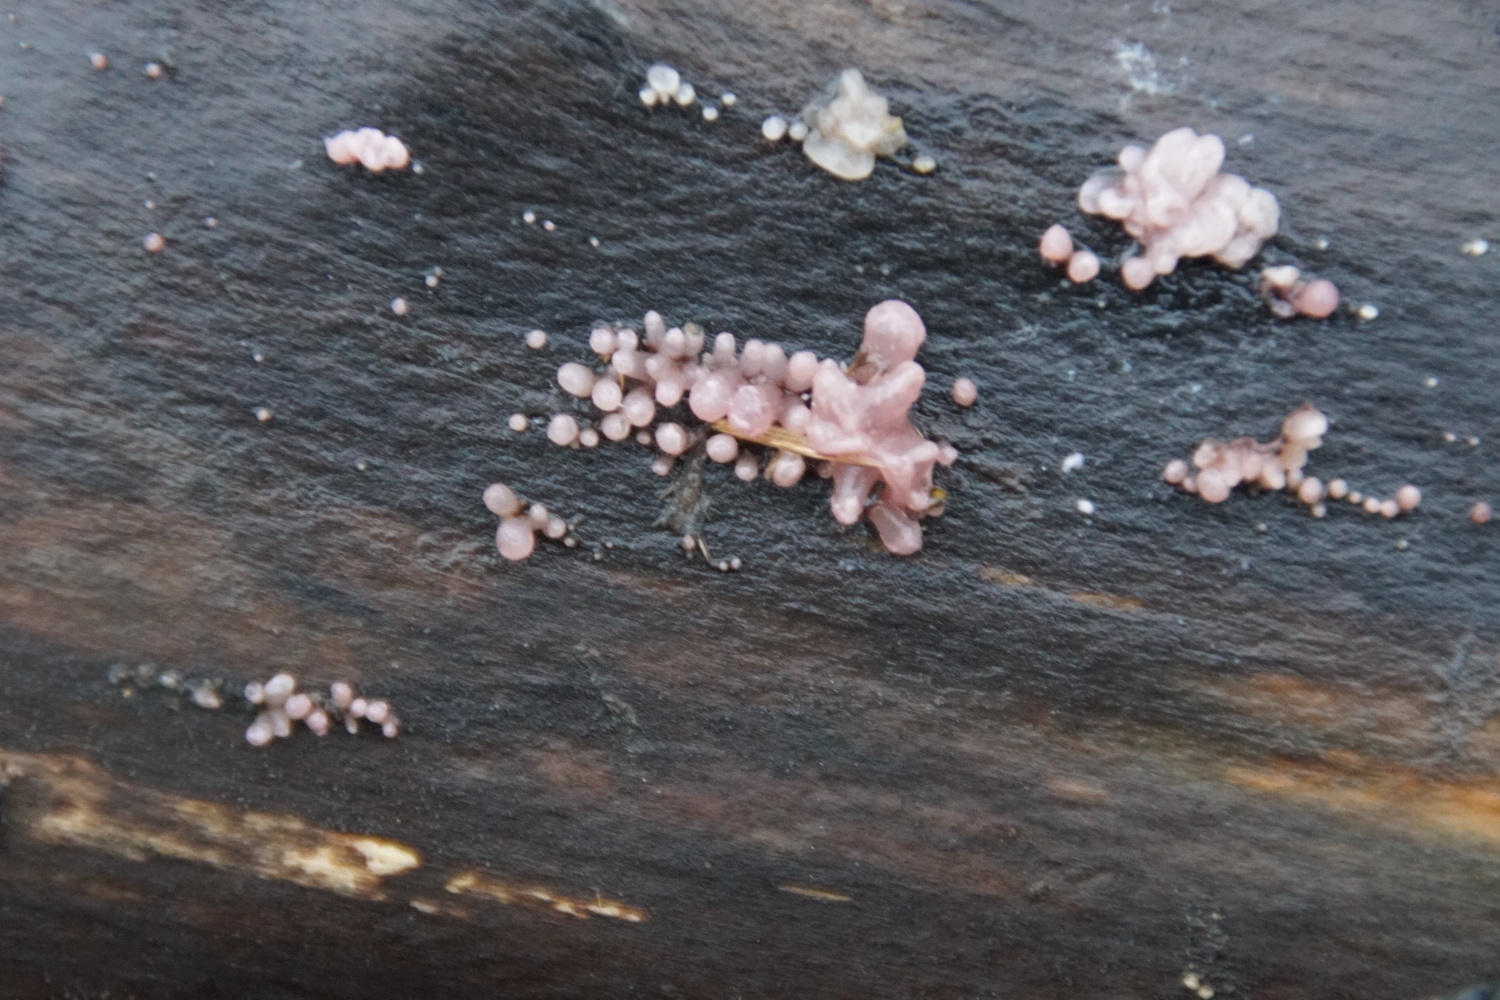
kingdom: Fungi
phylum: Ascomycota
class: Leotiomycetes
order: Helotiales
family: Gelatinodiscaceae
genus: Ascocoryne
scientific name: Ascocoryne sarcoides
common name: rødlilla sejskive
